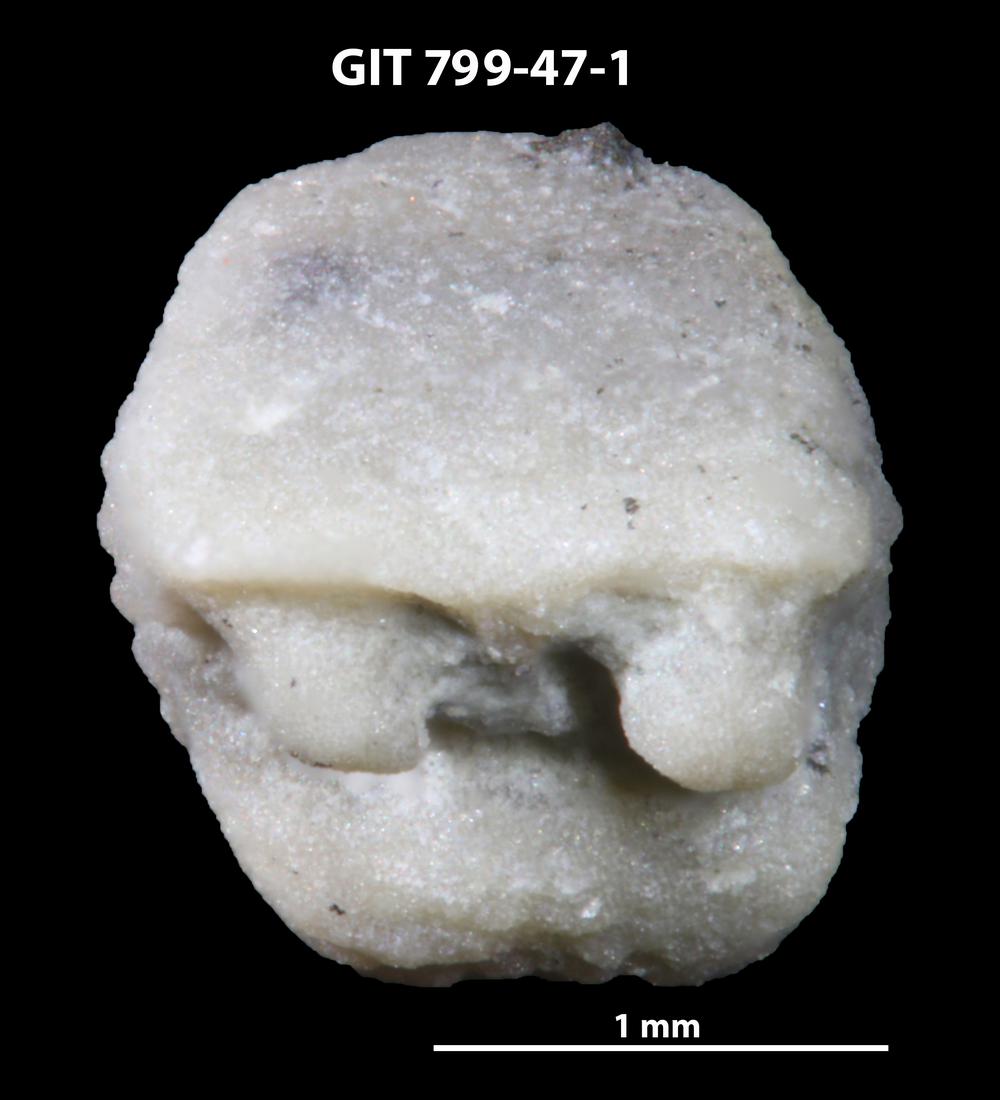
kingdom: Animalia
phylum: Echinodermata
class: Crinoidea
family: Cyclocystoididae
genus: Polytryphocycloides
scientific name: Polytryphocycloides Cyclocystoides lindstroemi
